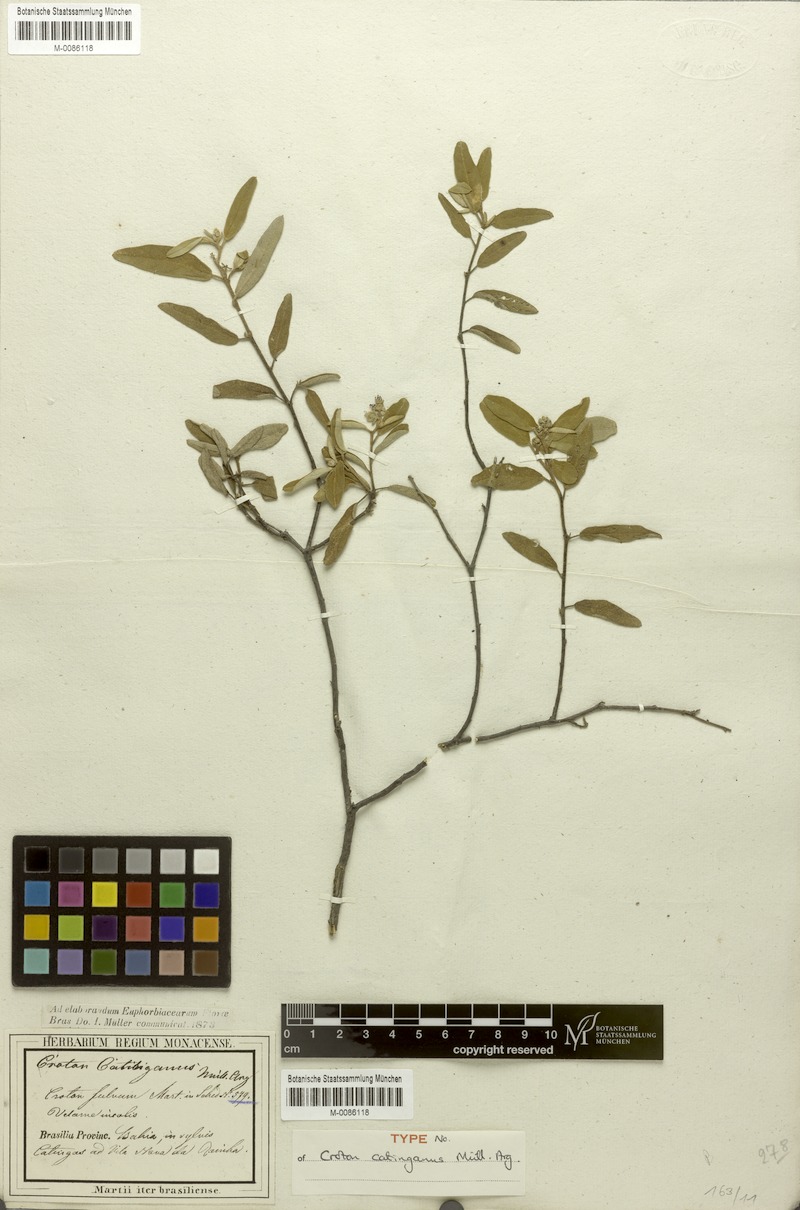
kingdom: Plantae
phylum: Tracheophyta
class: Magnoliopsida
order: Malpighiales
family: Euphorbiaceae
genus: Croton
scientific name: Croton catinganus
